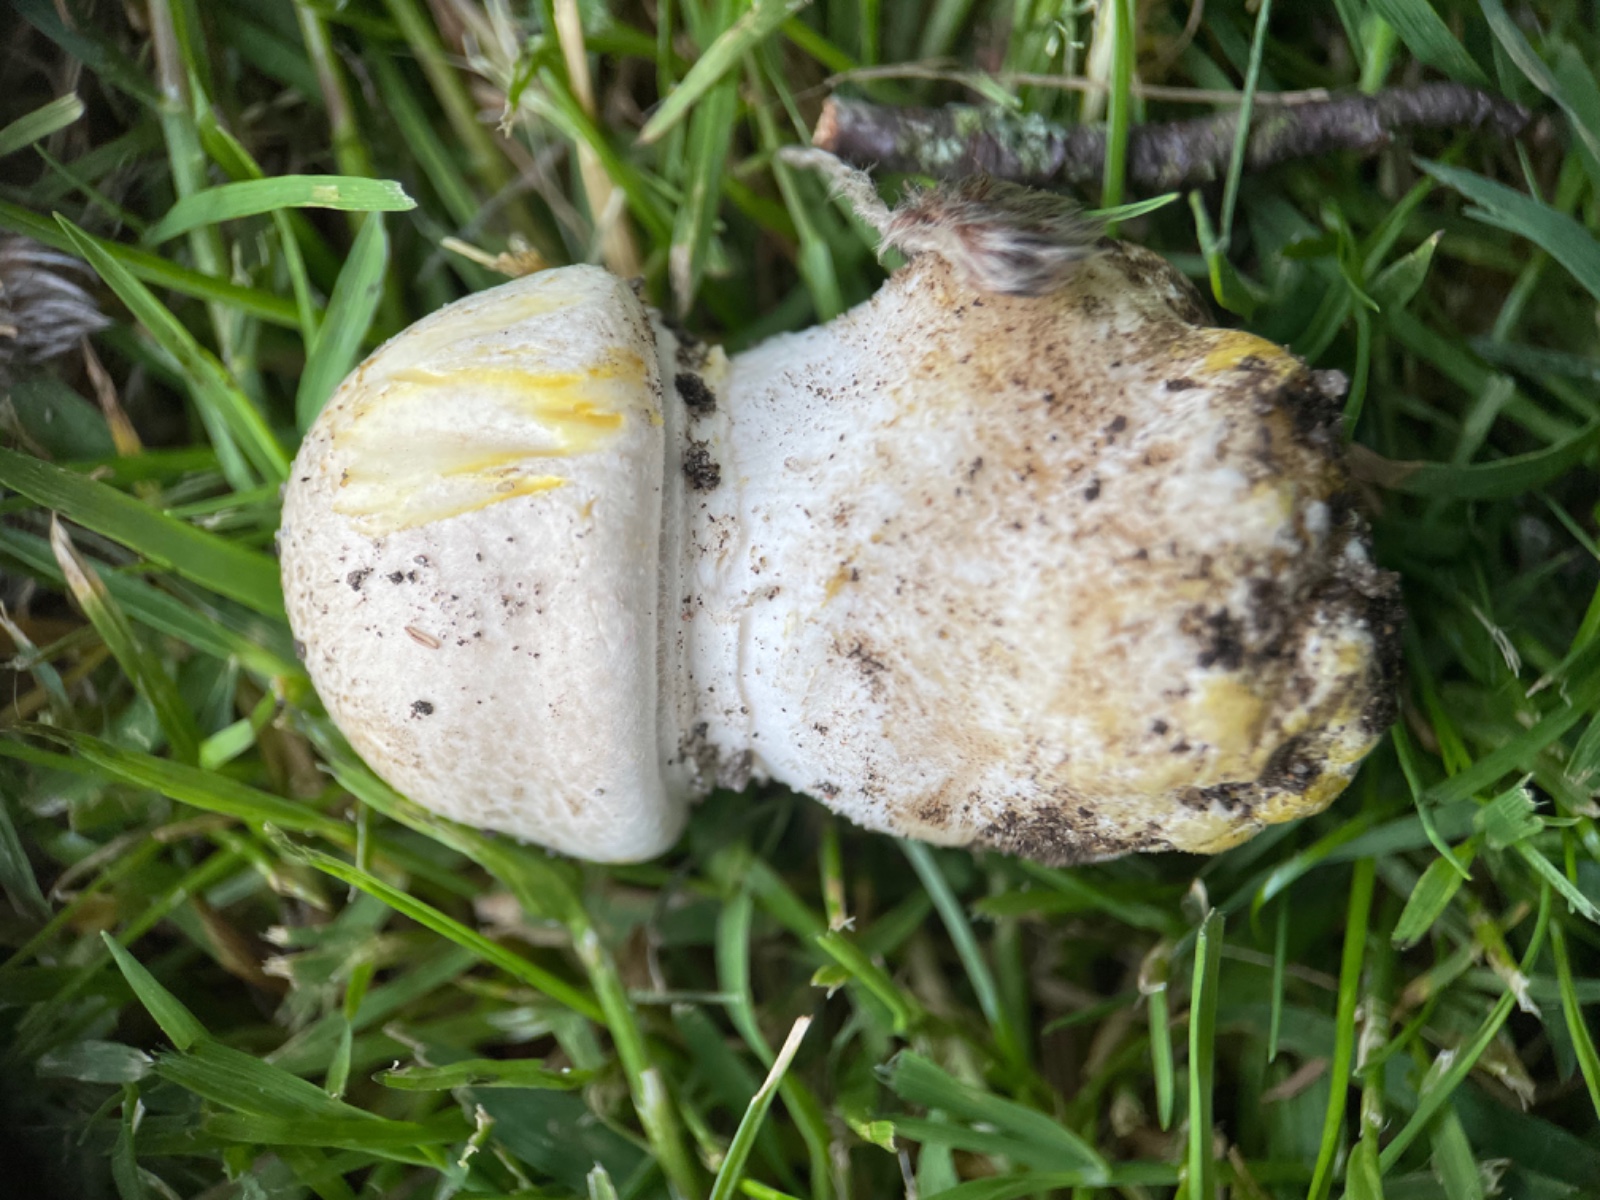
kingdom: Fungi
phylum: Basidiomycota
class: Agaricomycetes
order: Agaricales
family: Agaricaceae
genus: Agaricus
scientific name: Agaricus xanthodermus
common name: karbol-champignon
